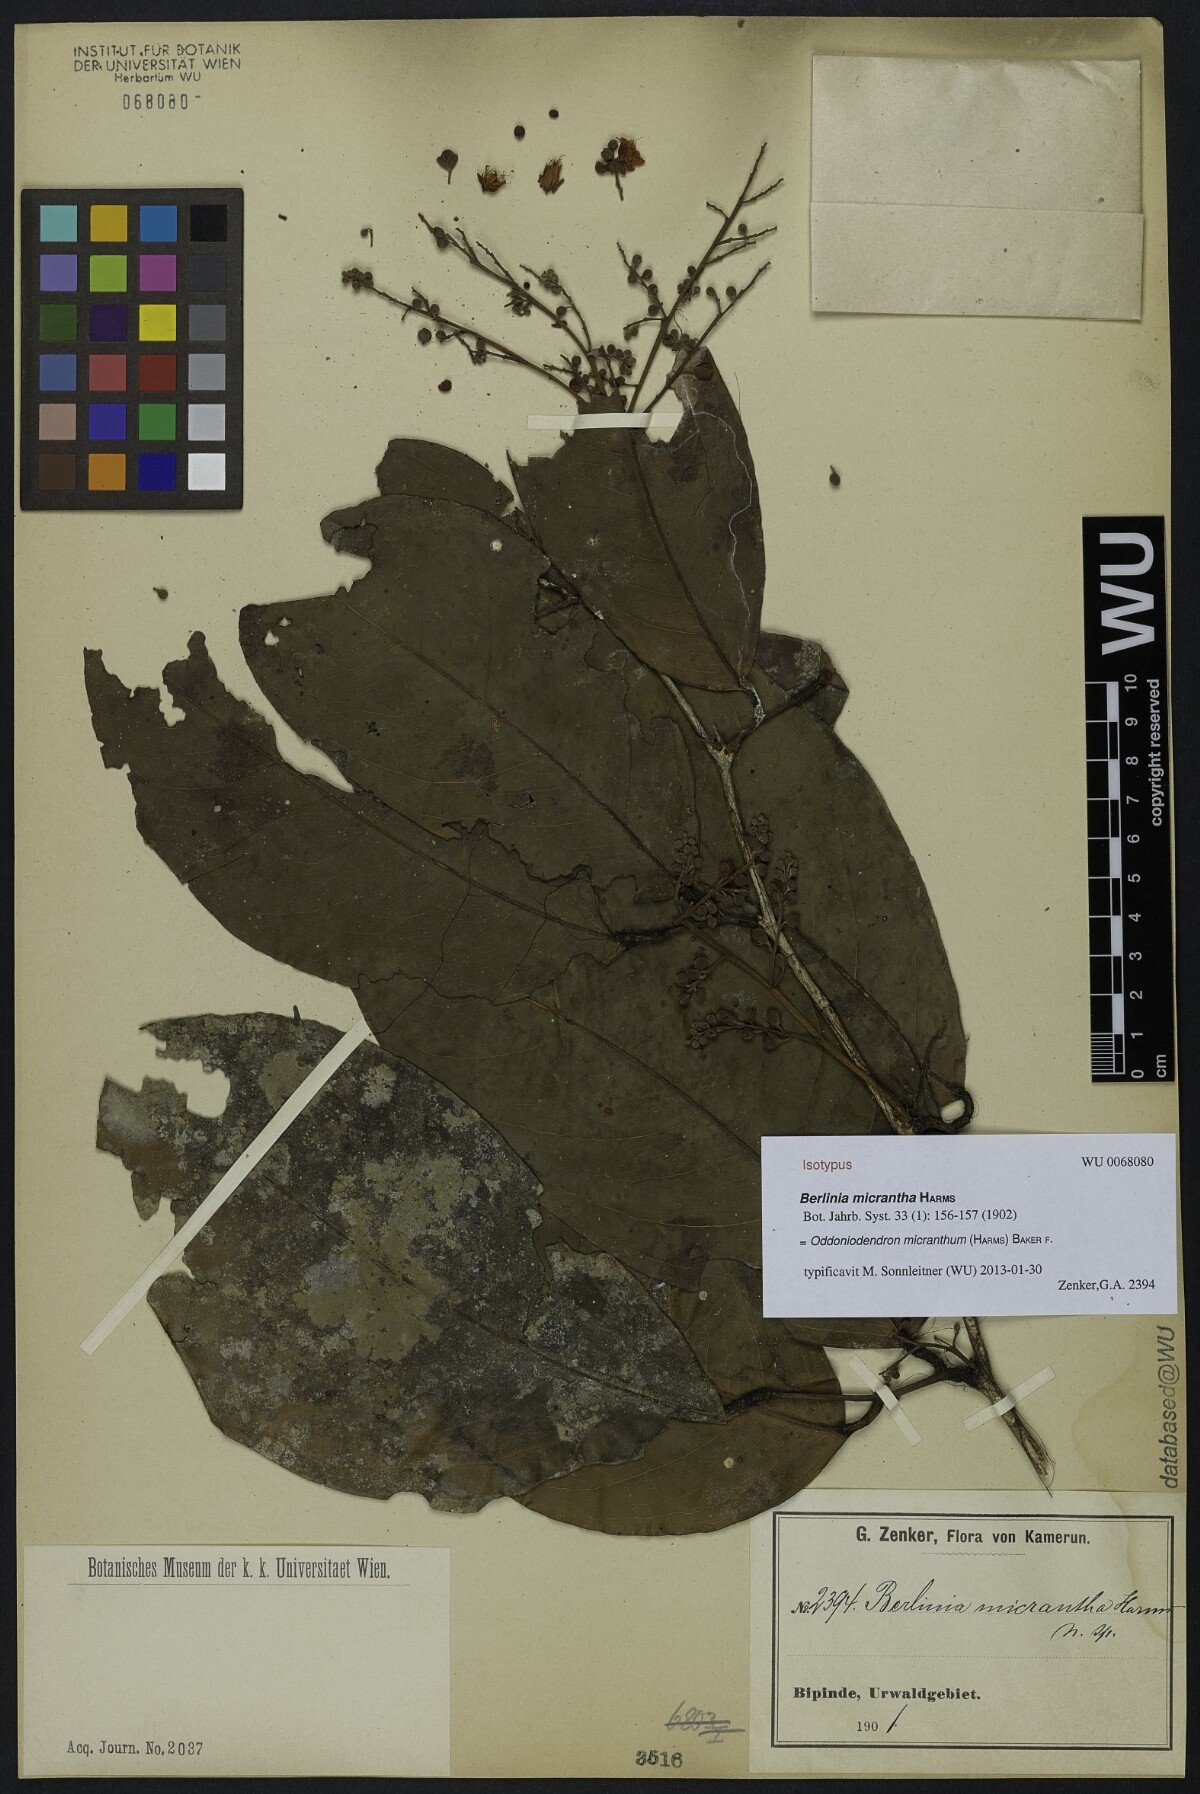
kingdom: Plantae
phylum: Tracheophyta
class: Magnoliopsida
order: Fabales
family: Fabaceae
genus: Oddoniodendron
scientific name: Oddoniodendron micranthum
